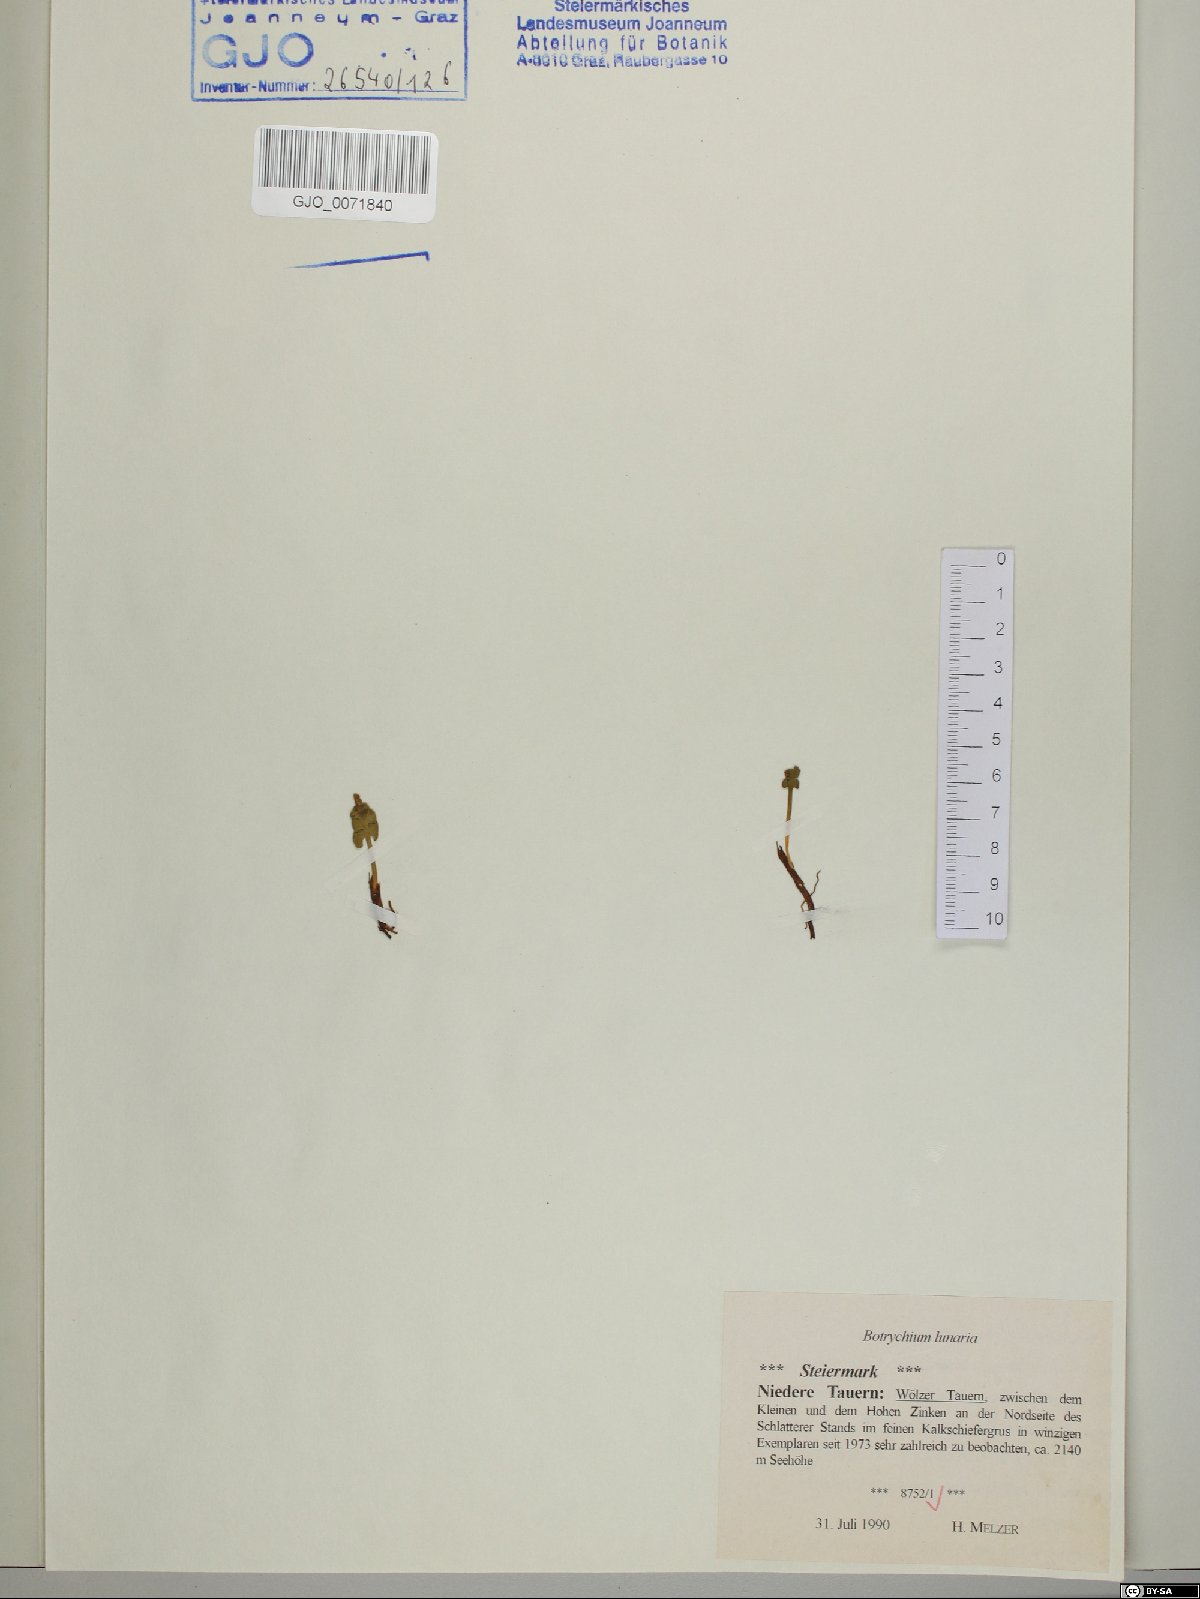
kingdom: Plantae
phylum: Tracheophyta
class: Polypodiopsida
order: Ophioglossales
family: Ophioglossaceae
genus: Botrychium
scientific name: Botrychium lunaria
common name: Moonwort
